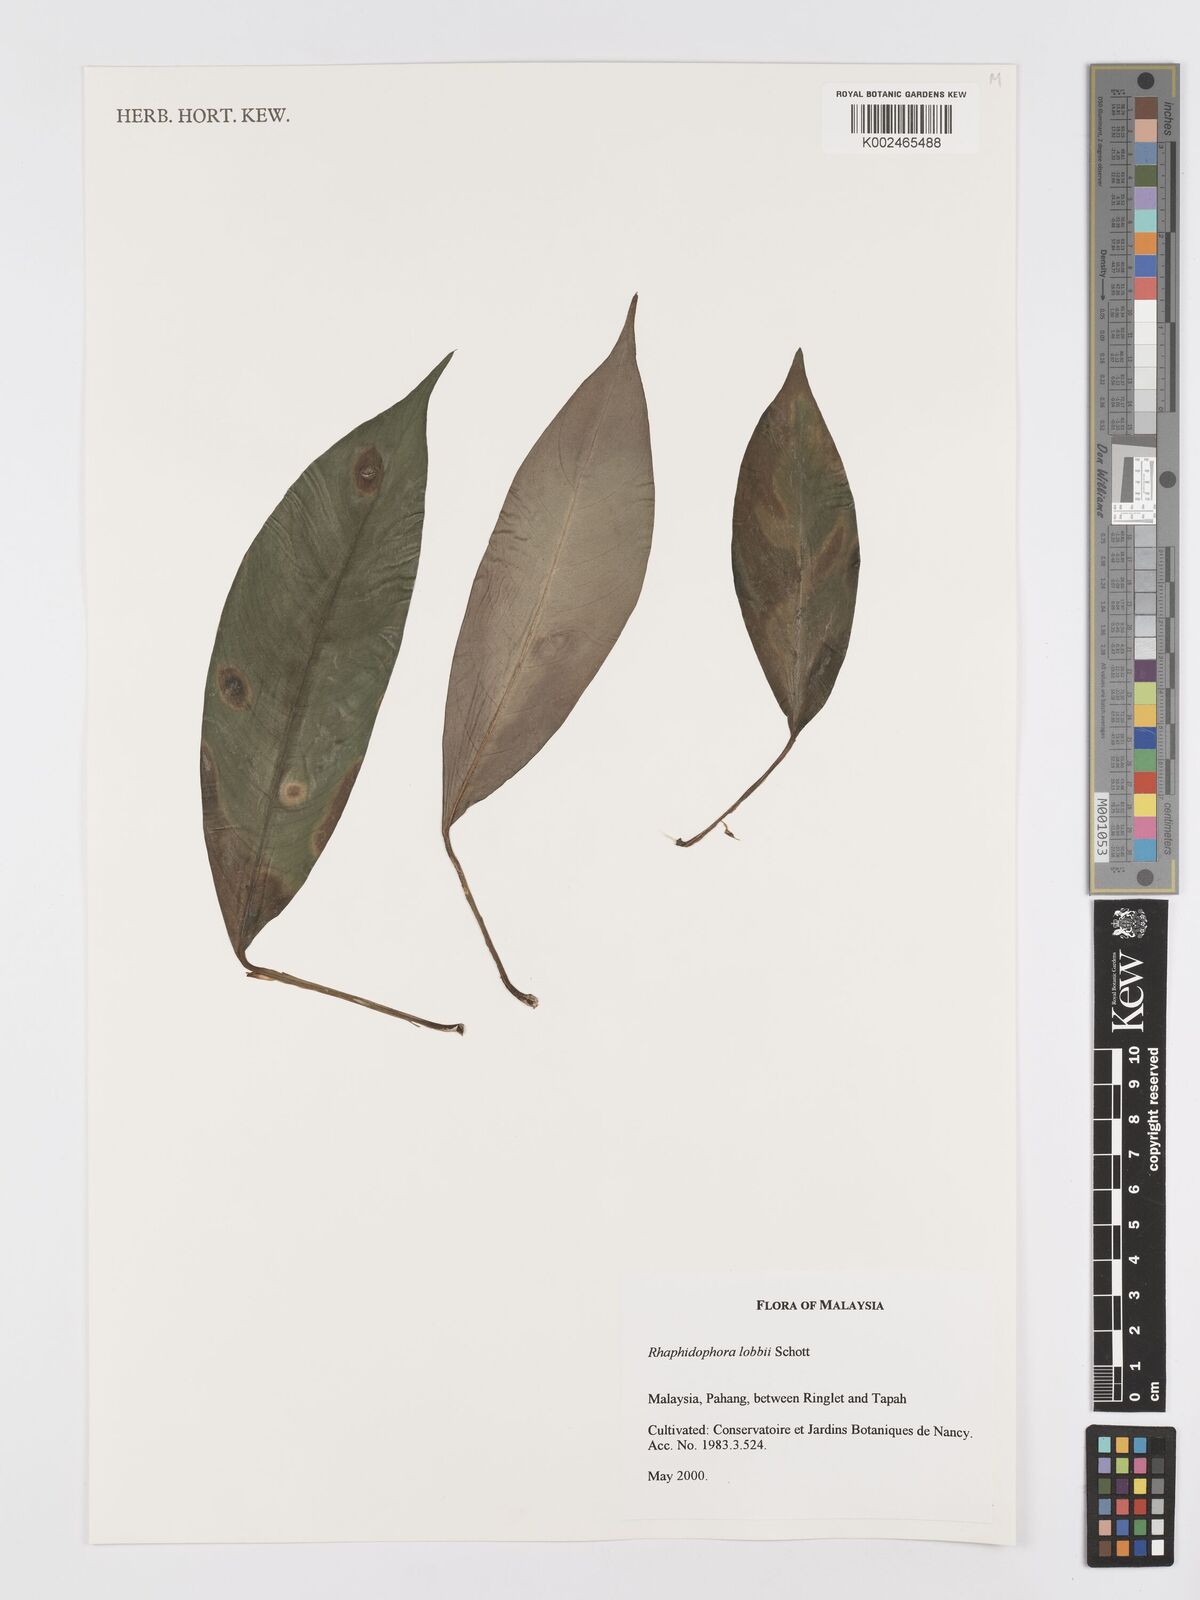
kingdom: Plantae
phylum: Tracheophyta
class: Liliopsida
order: Alismatales
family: Araceae
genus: Rhaphidophora
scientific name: Rhaphidophora lobbii
